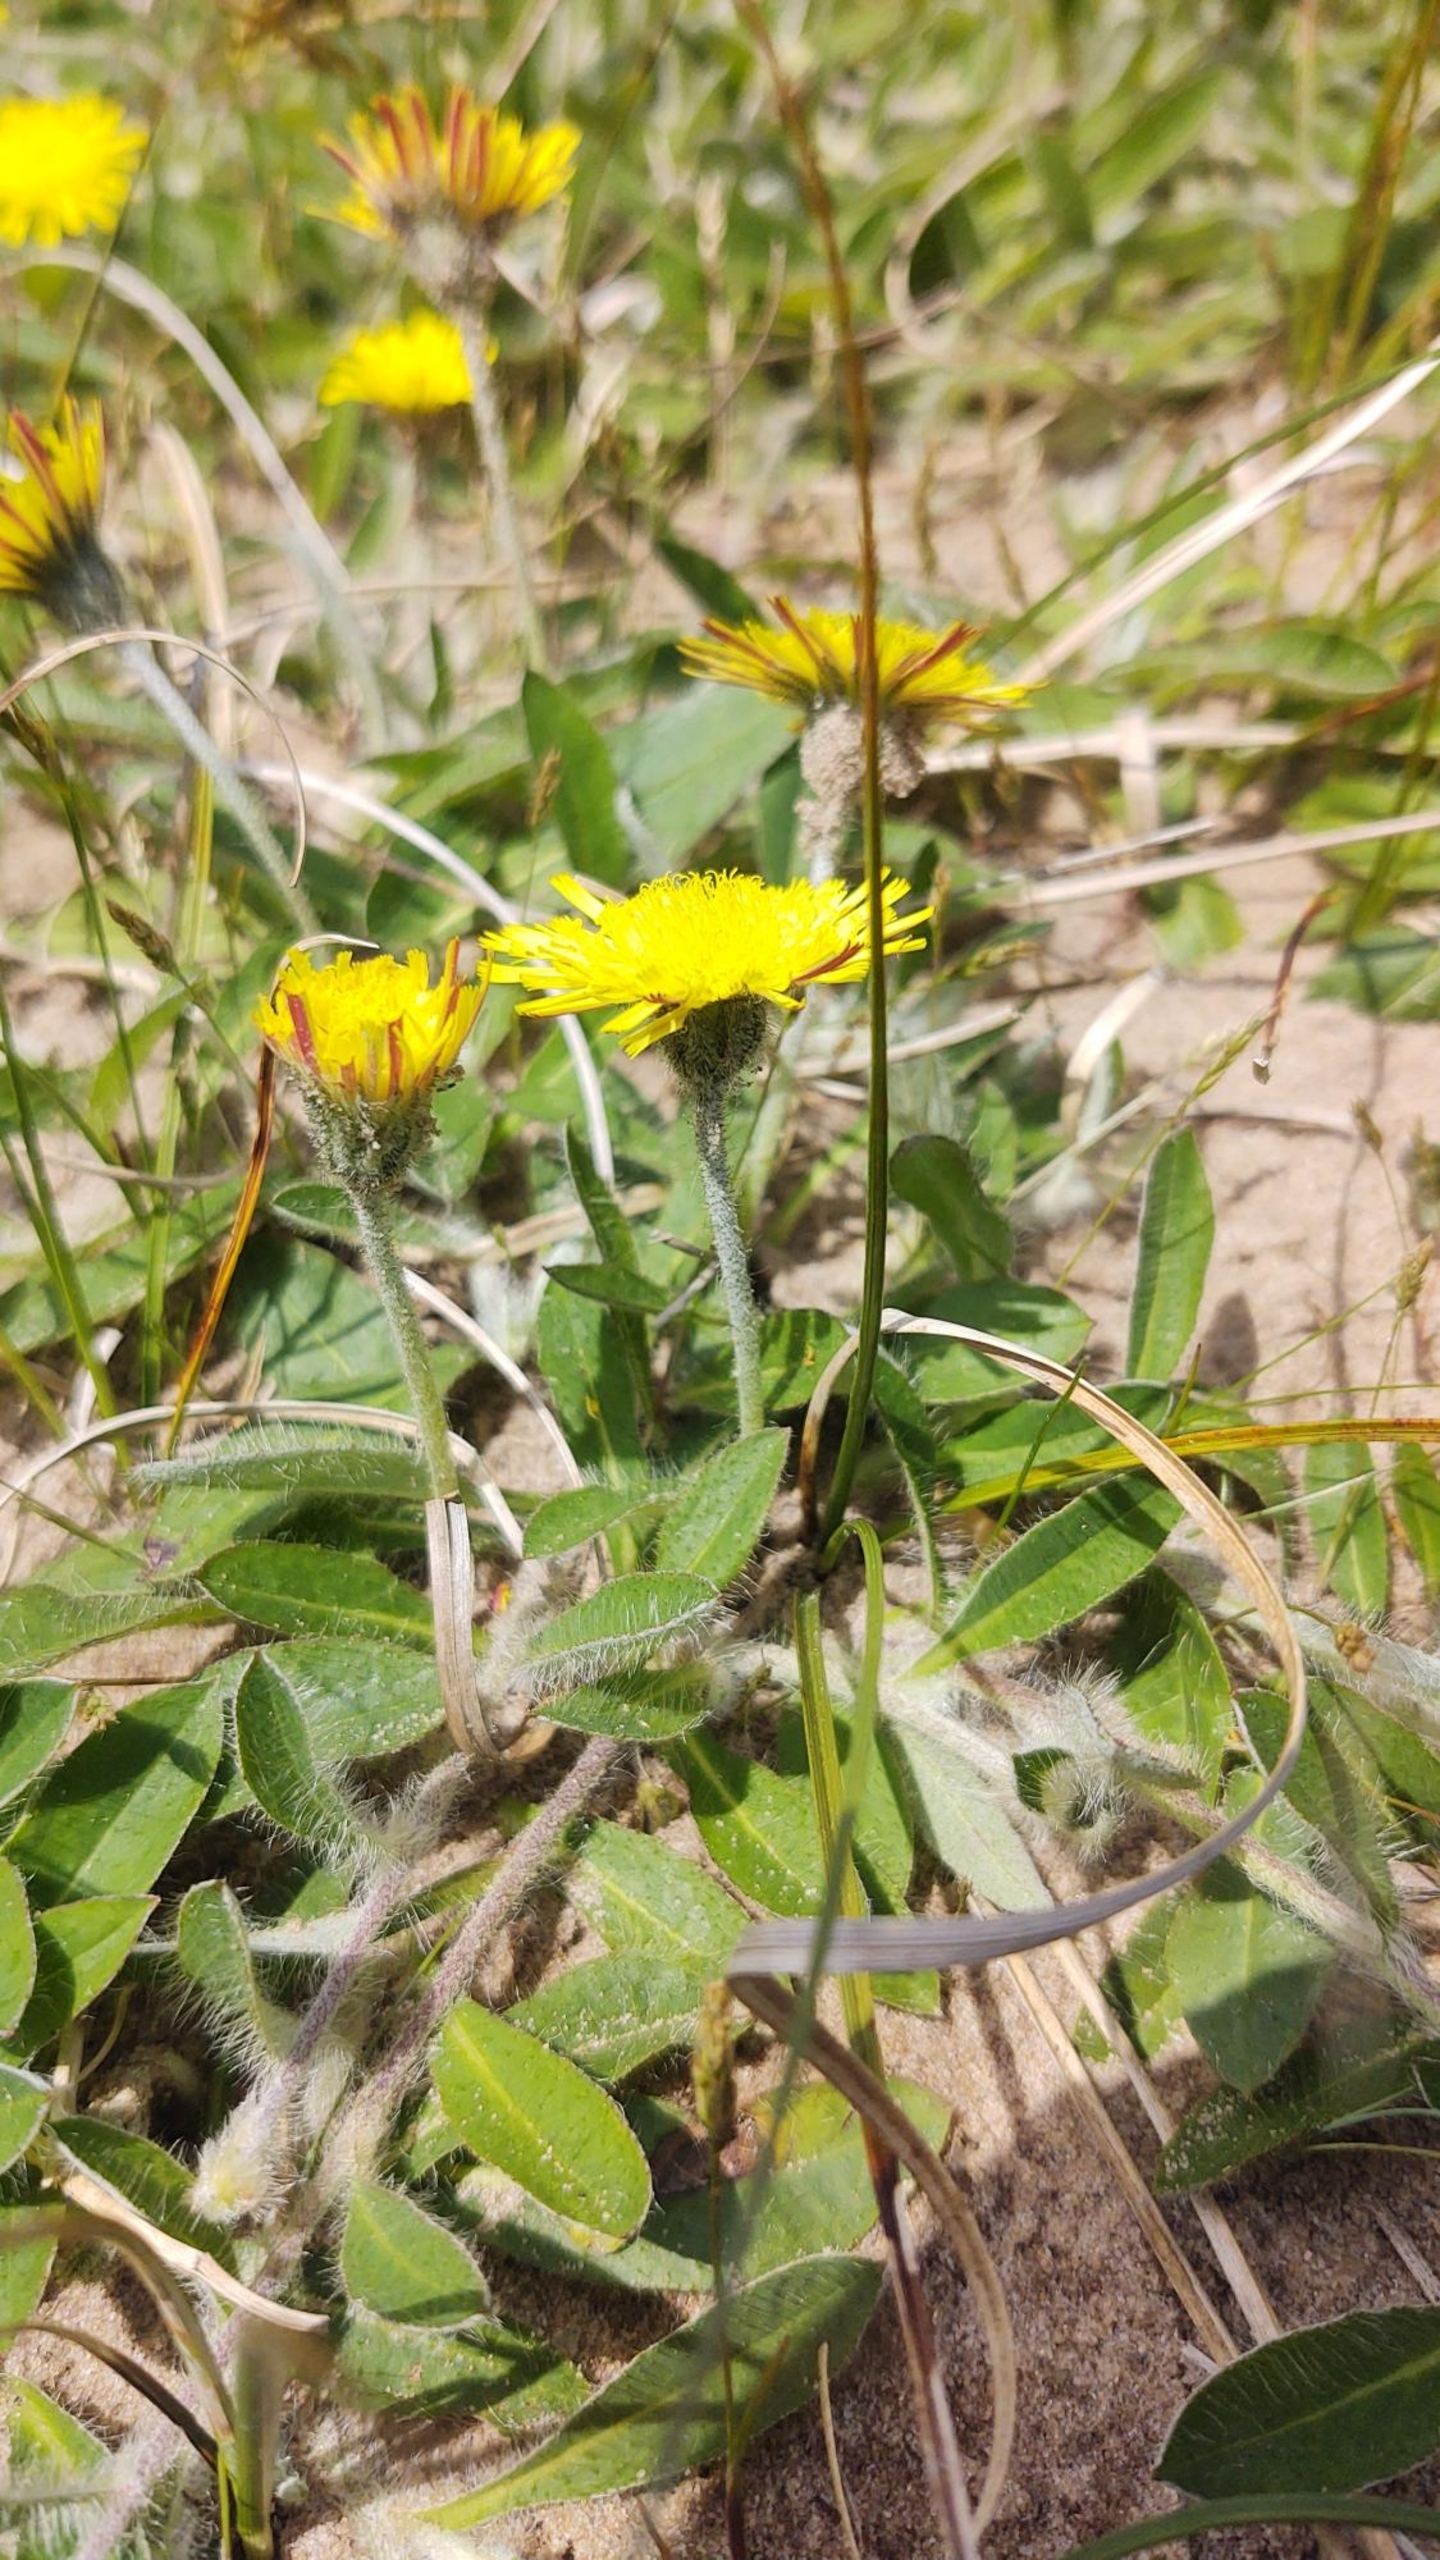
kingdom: Plantae
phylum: Tracheophyta
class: Magnoliopsida
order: Asterales
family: Asteraceae
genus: Pilosella
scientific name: Pilosella officinarum
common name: Håret høgeurt
